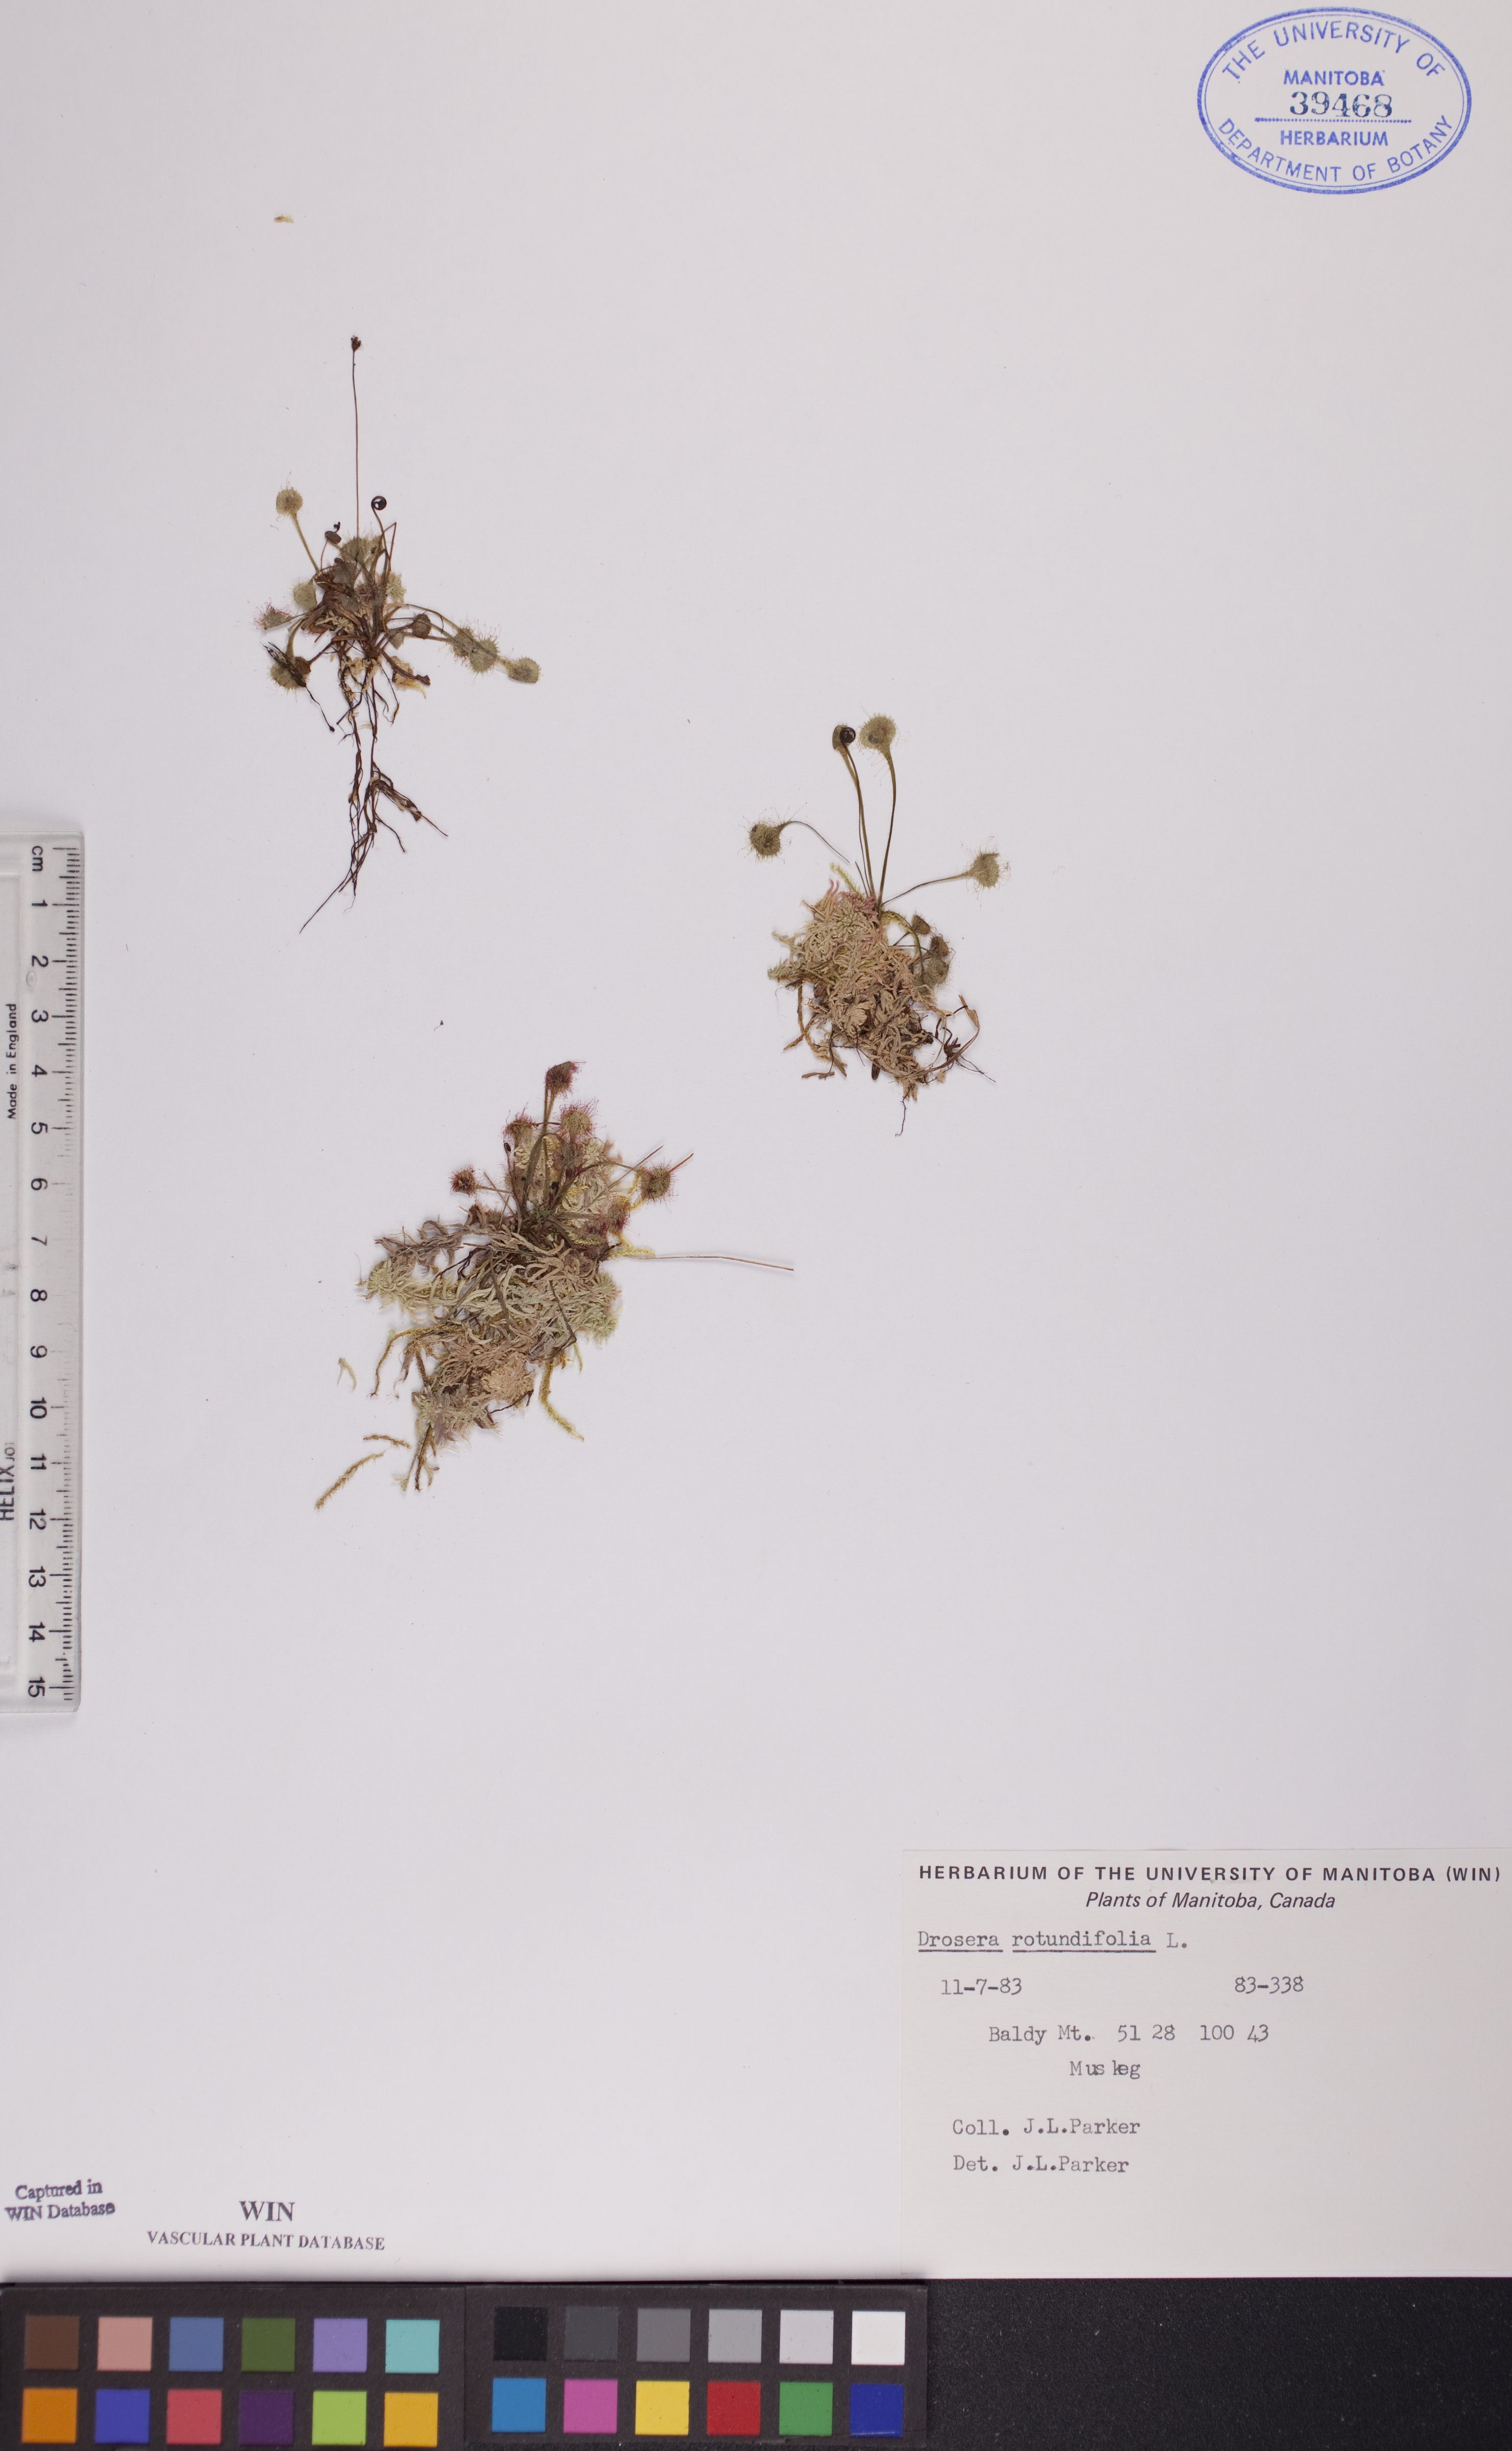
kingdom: Plantae
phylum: Tracheophyta
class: Magnoliopsida
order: Caryophyllales
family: Droseraceae
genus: Drosera
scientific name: Drosera rotundifolia
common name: Round-leaved sundew
